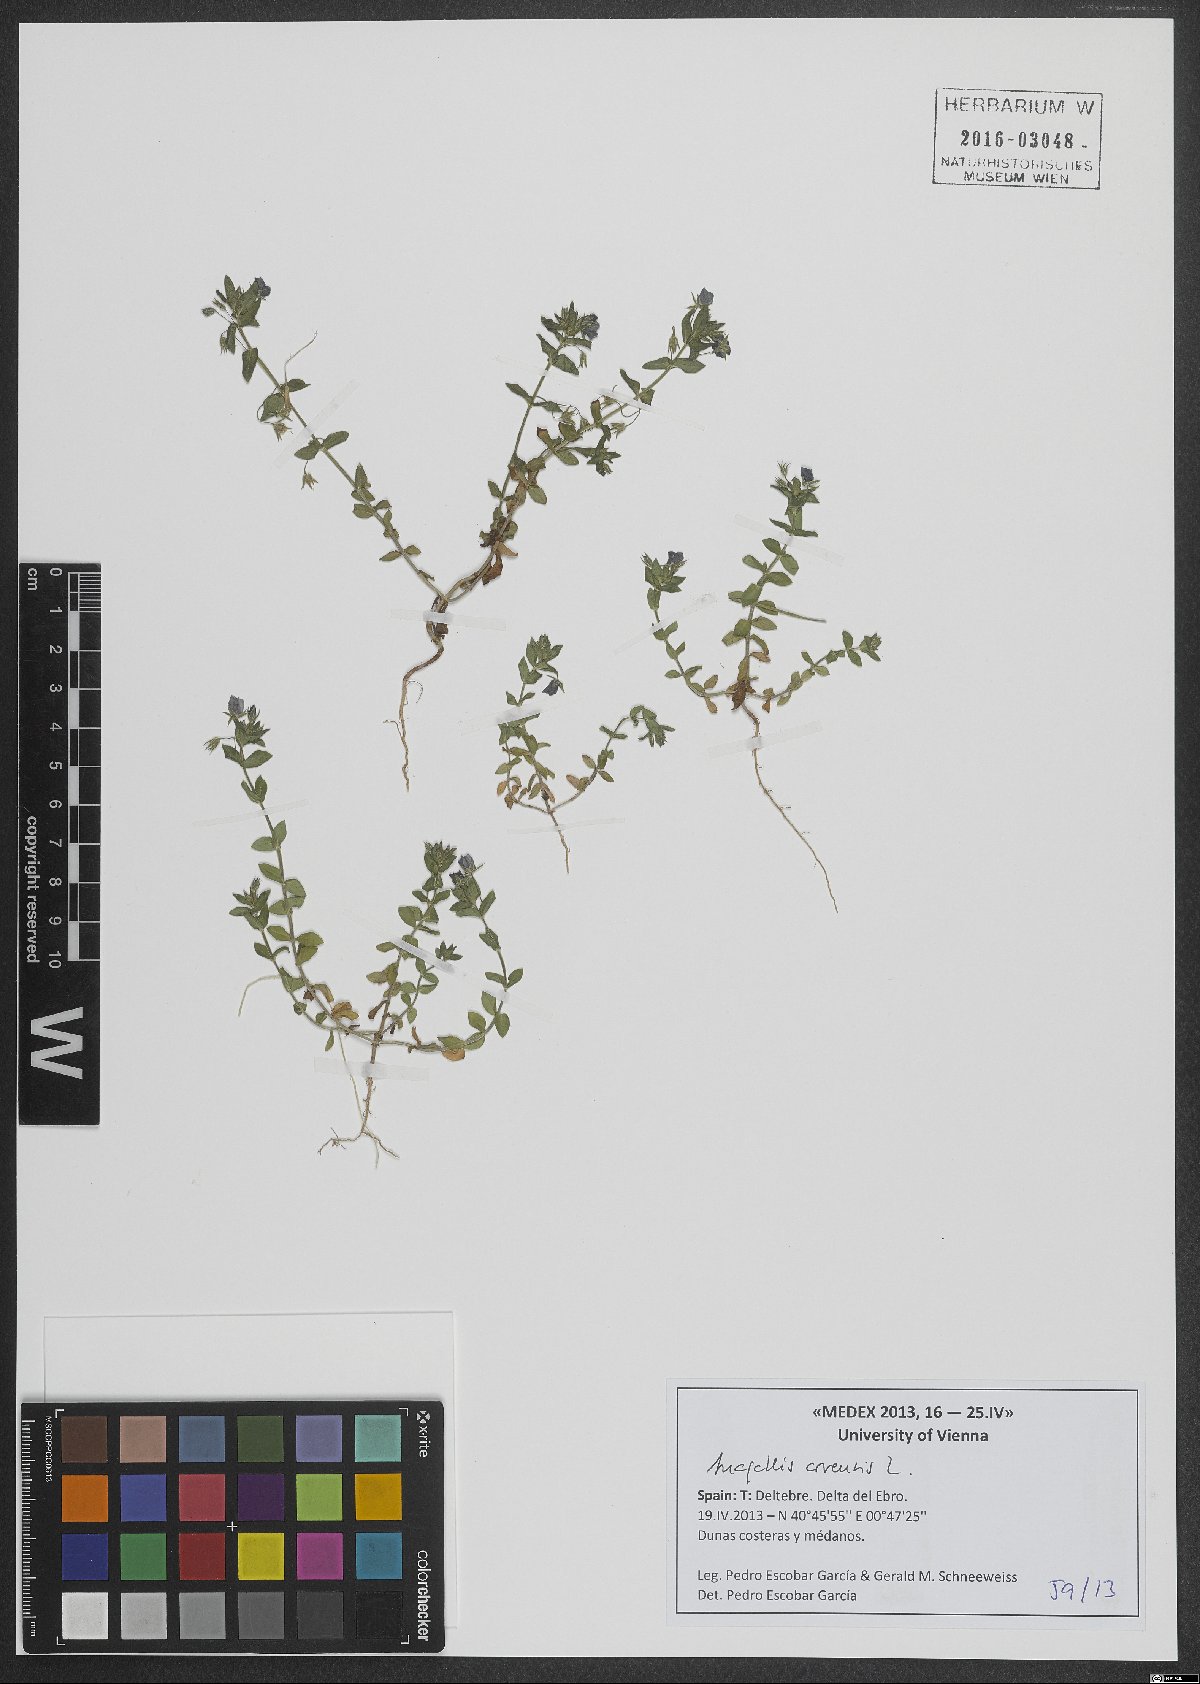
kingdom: Plantae
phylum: Tracheophyta
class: Magnoliopsida
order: Ericales
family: Primulaceae
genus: Lysimachia
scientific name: Lysimachia arvensis
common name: Scarlet pimpernel
